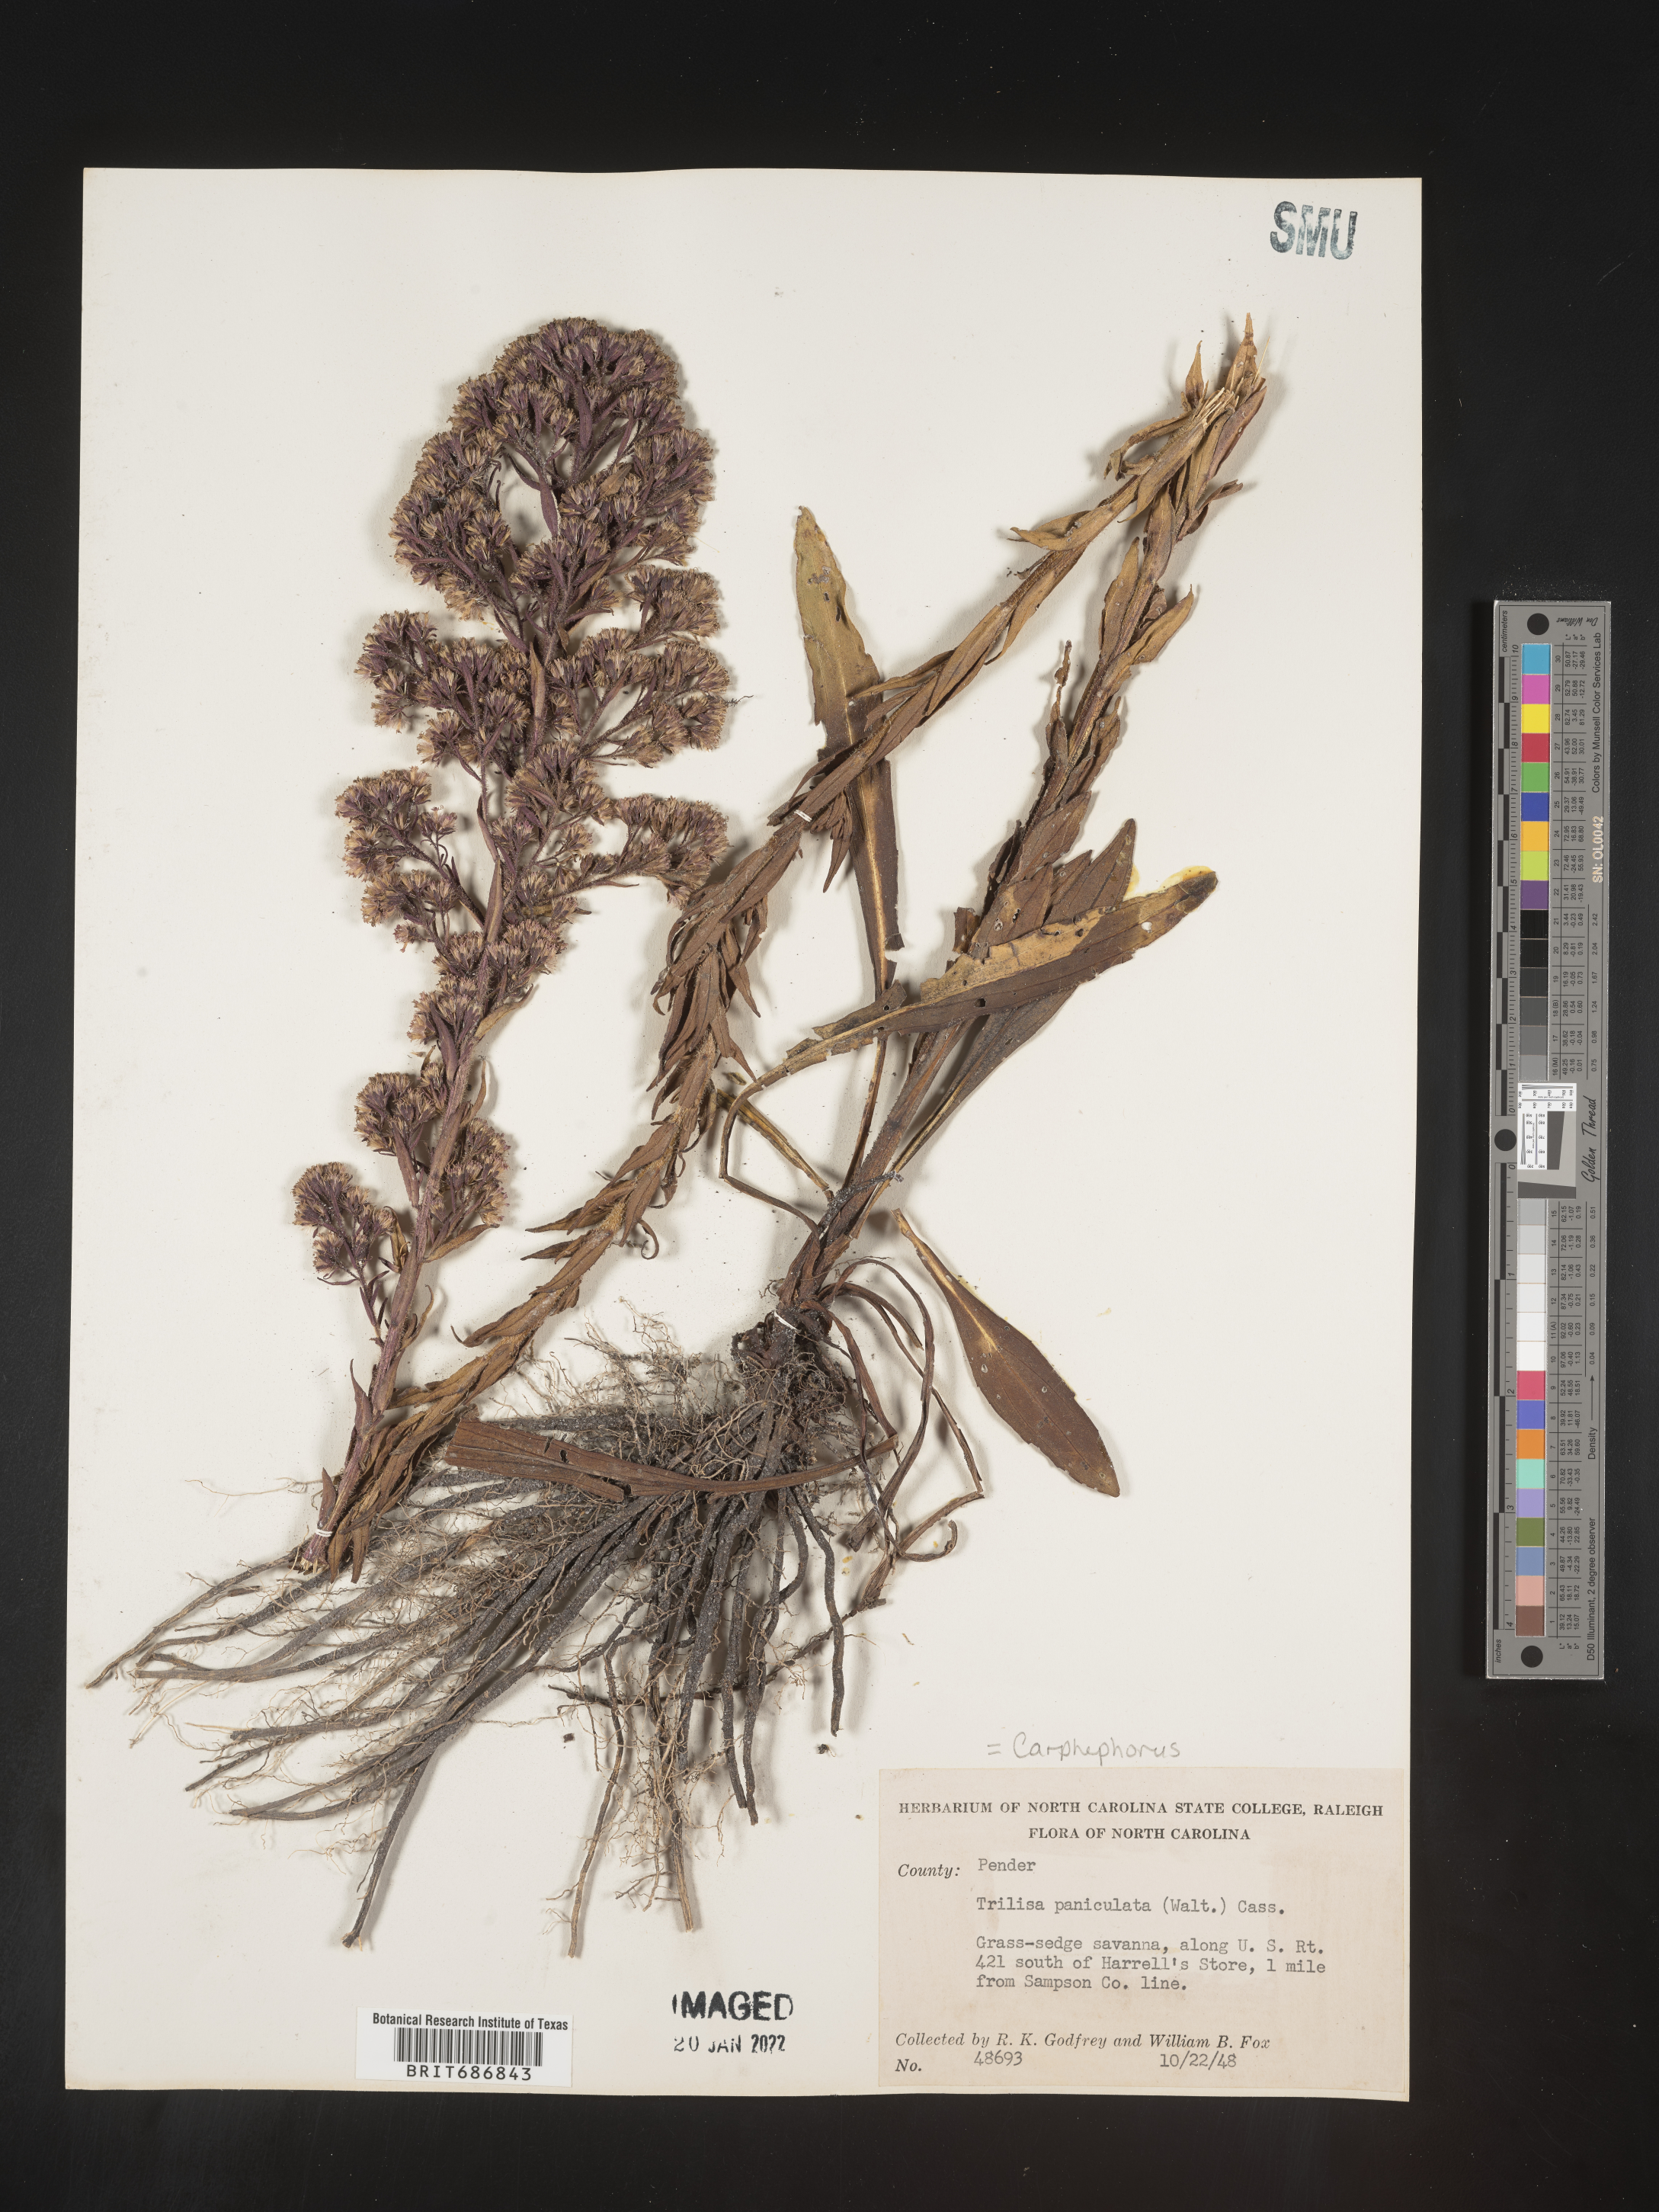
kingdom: Plantae
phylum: Tracheophyta
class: Magnoliopsida
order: Asterales
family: Asteraceae
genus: Carphephorus
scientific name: Carphephorus paniculatus
